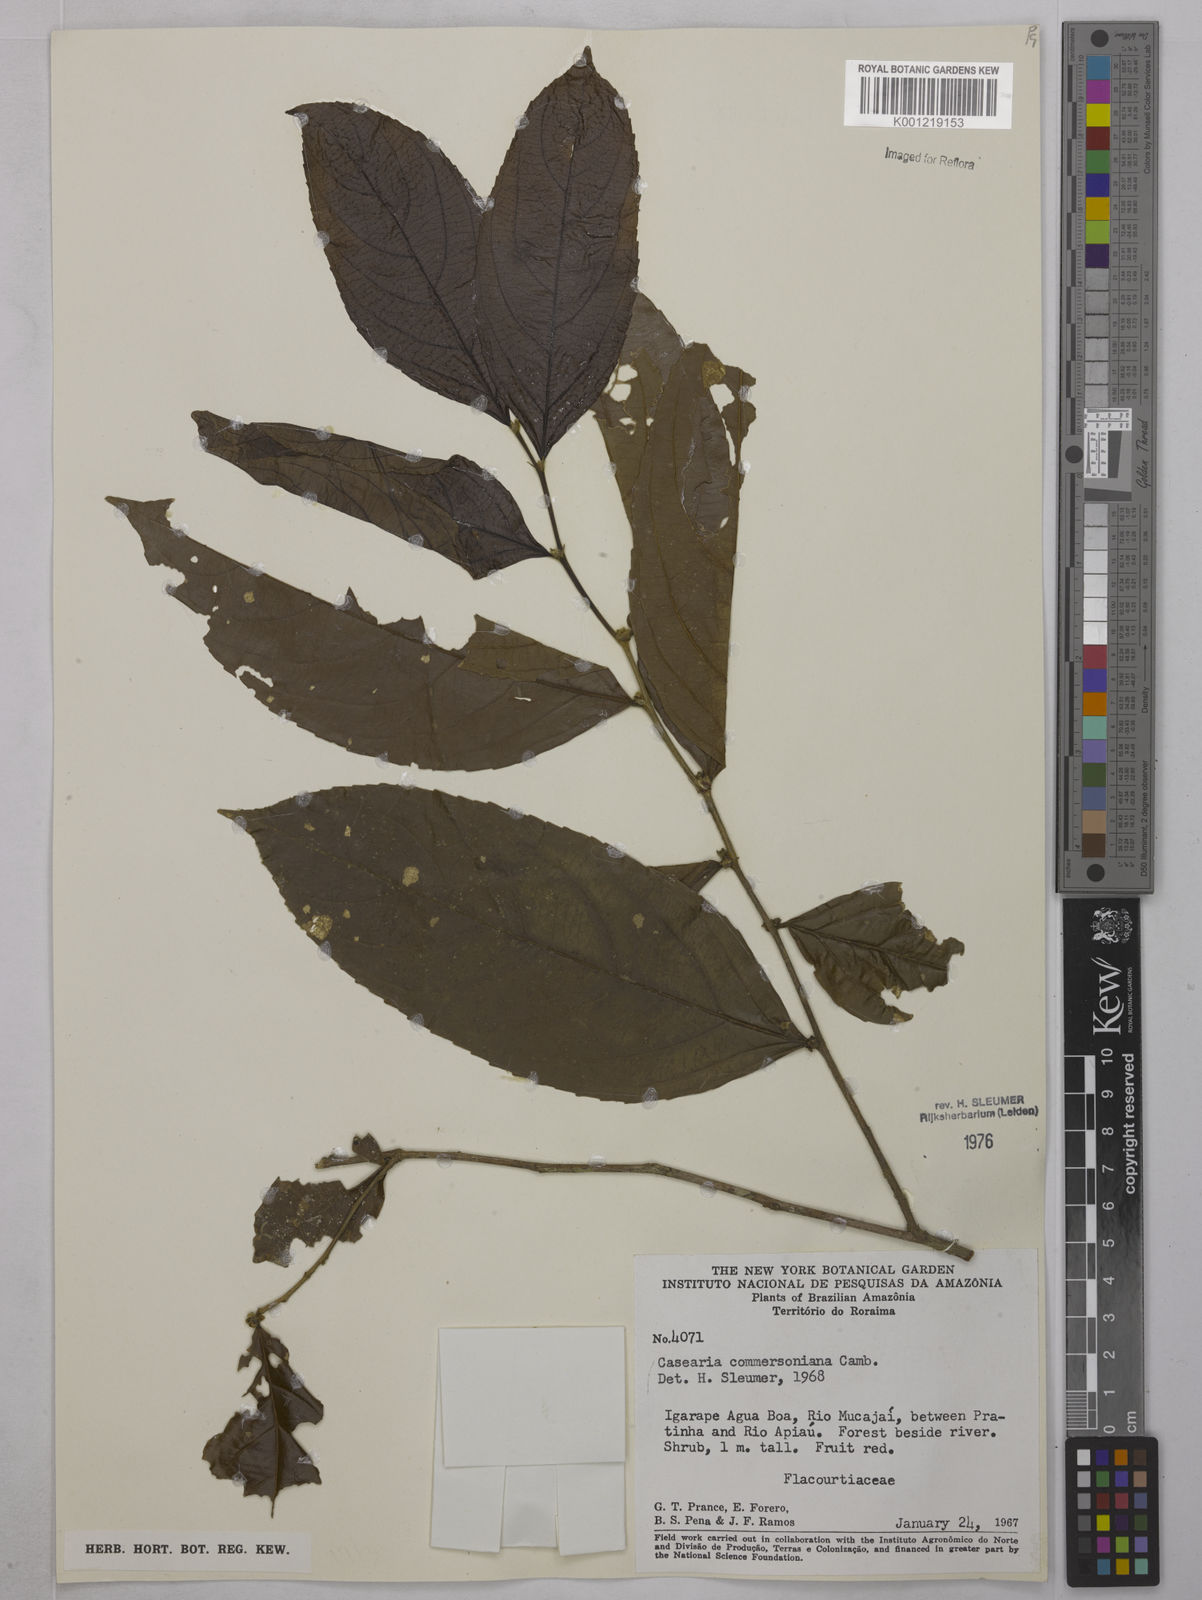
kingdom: Plantae
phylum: Tracheophyta
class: Magnoliopsida
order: Malpighiales
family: Salicaceae
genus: Piparea
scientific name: Piparea dentata
